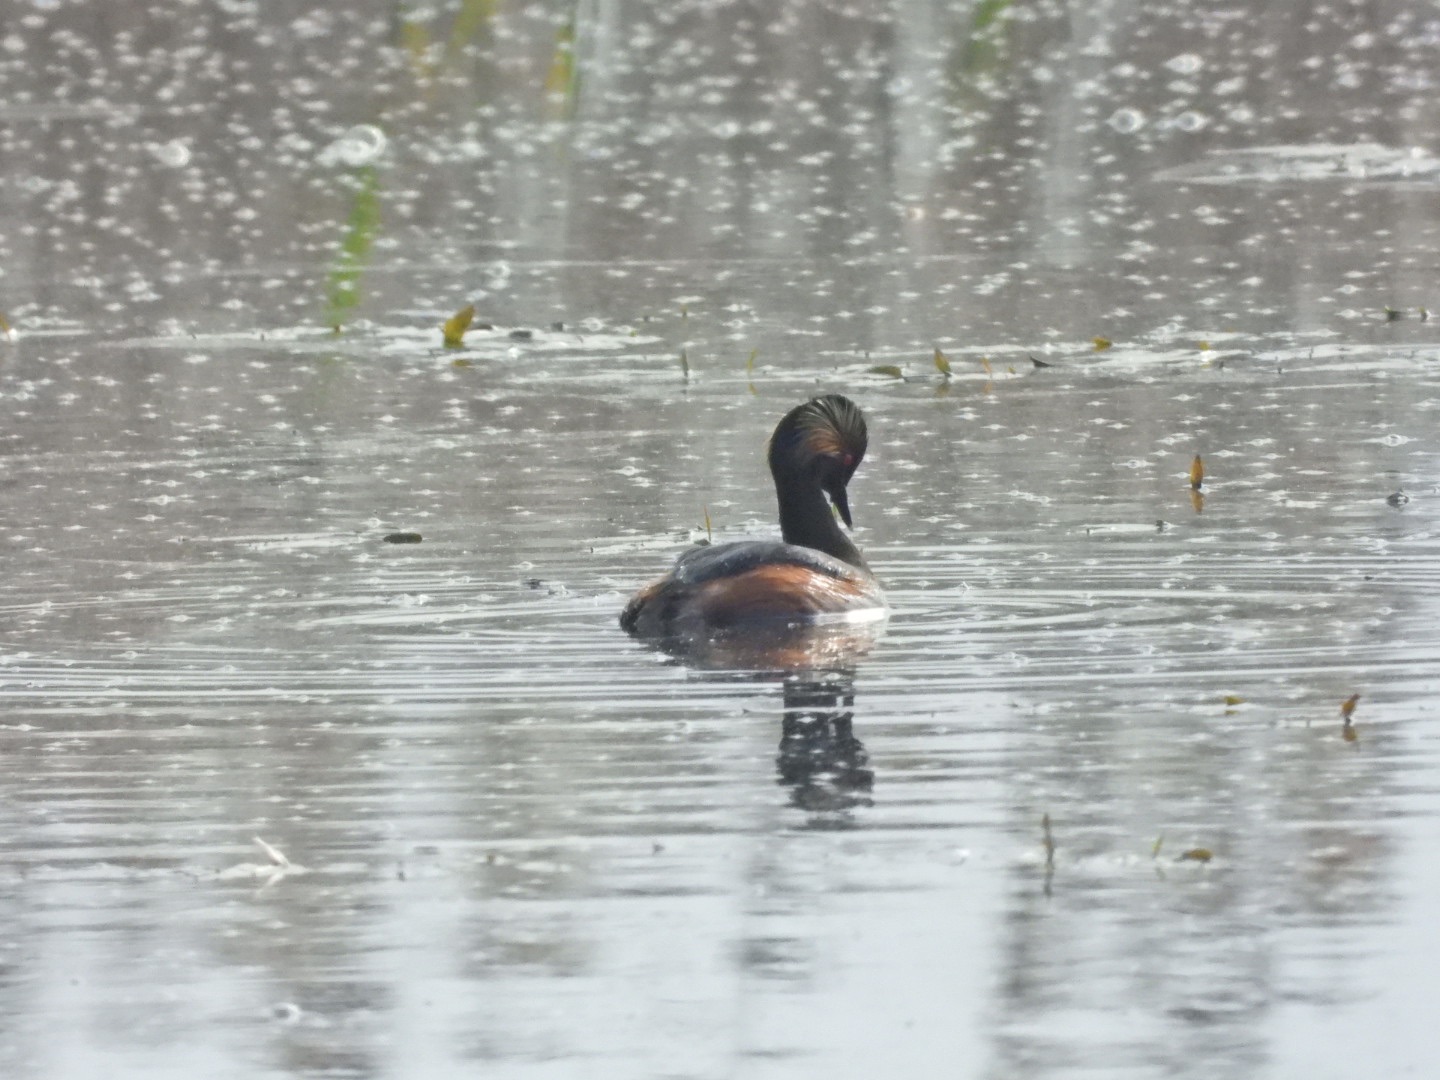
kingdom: Animalia
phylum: Chordata
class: Aves
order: Podicipediformes
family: Podicipedidae
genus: Podiceps
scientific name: Podiceps nigricollis
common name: Sorthalset lappedykker
